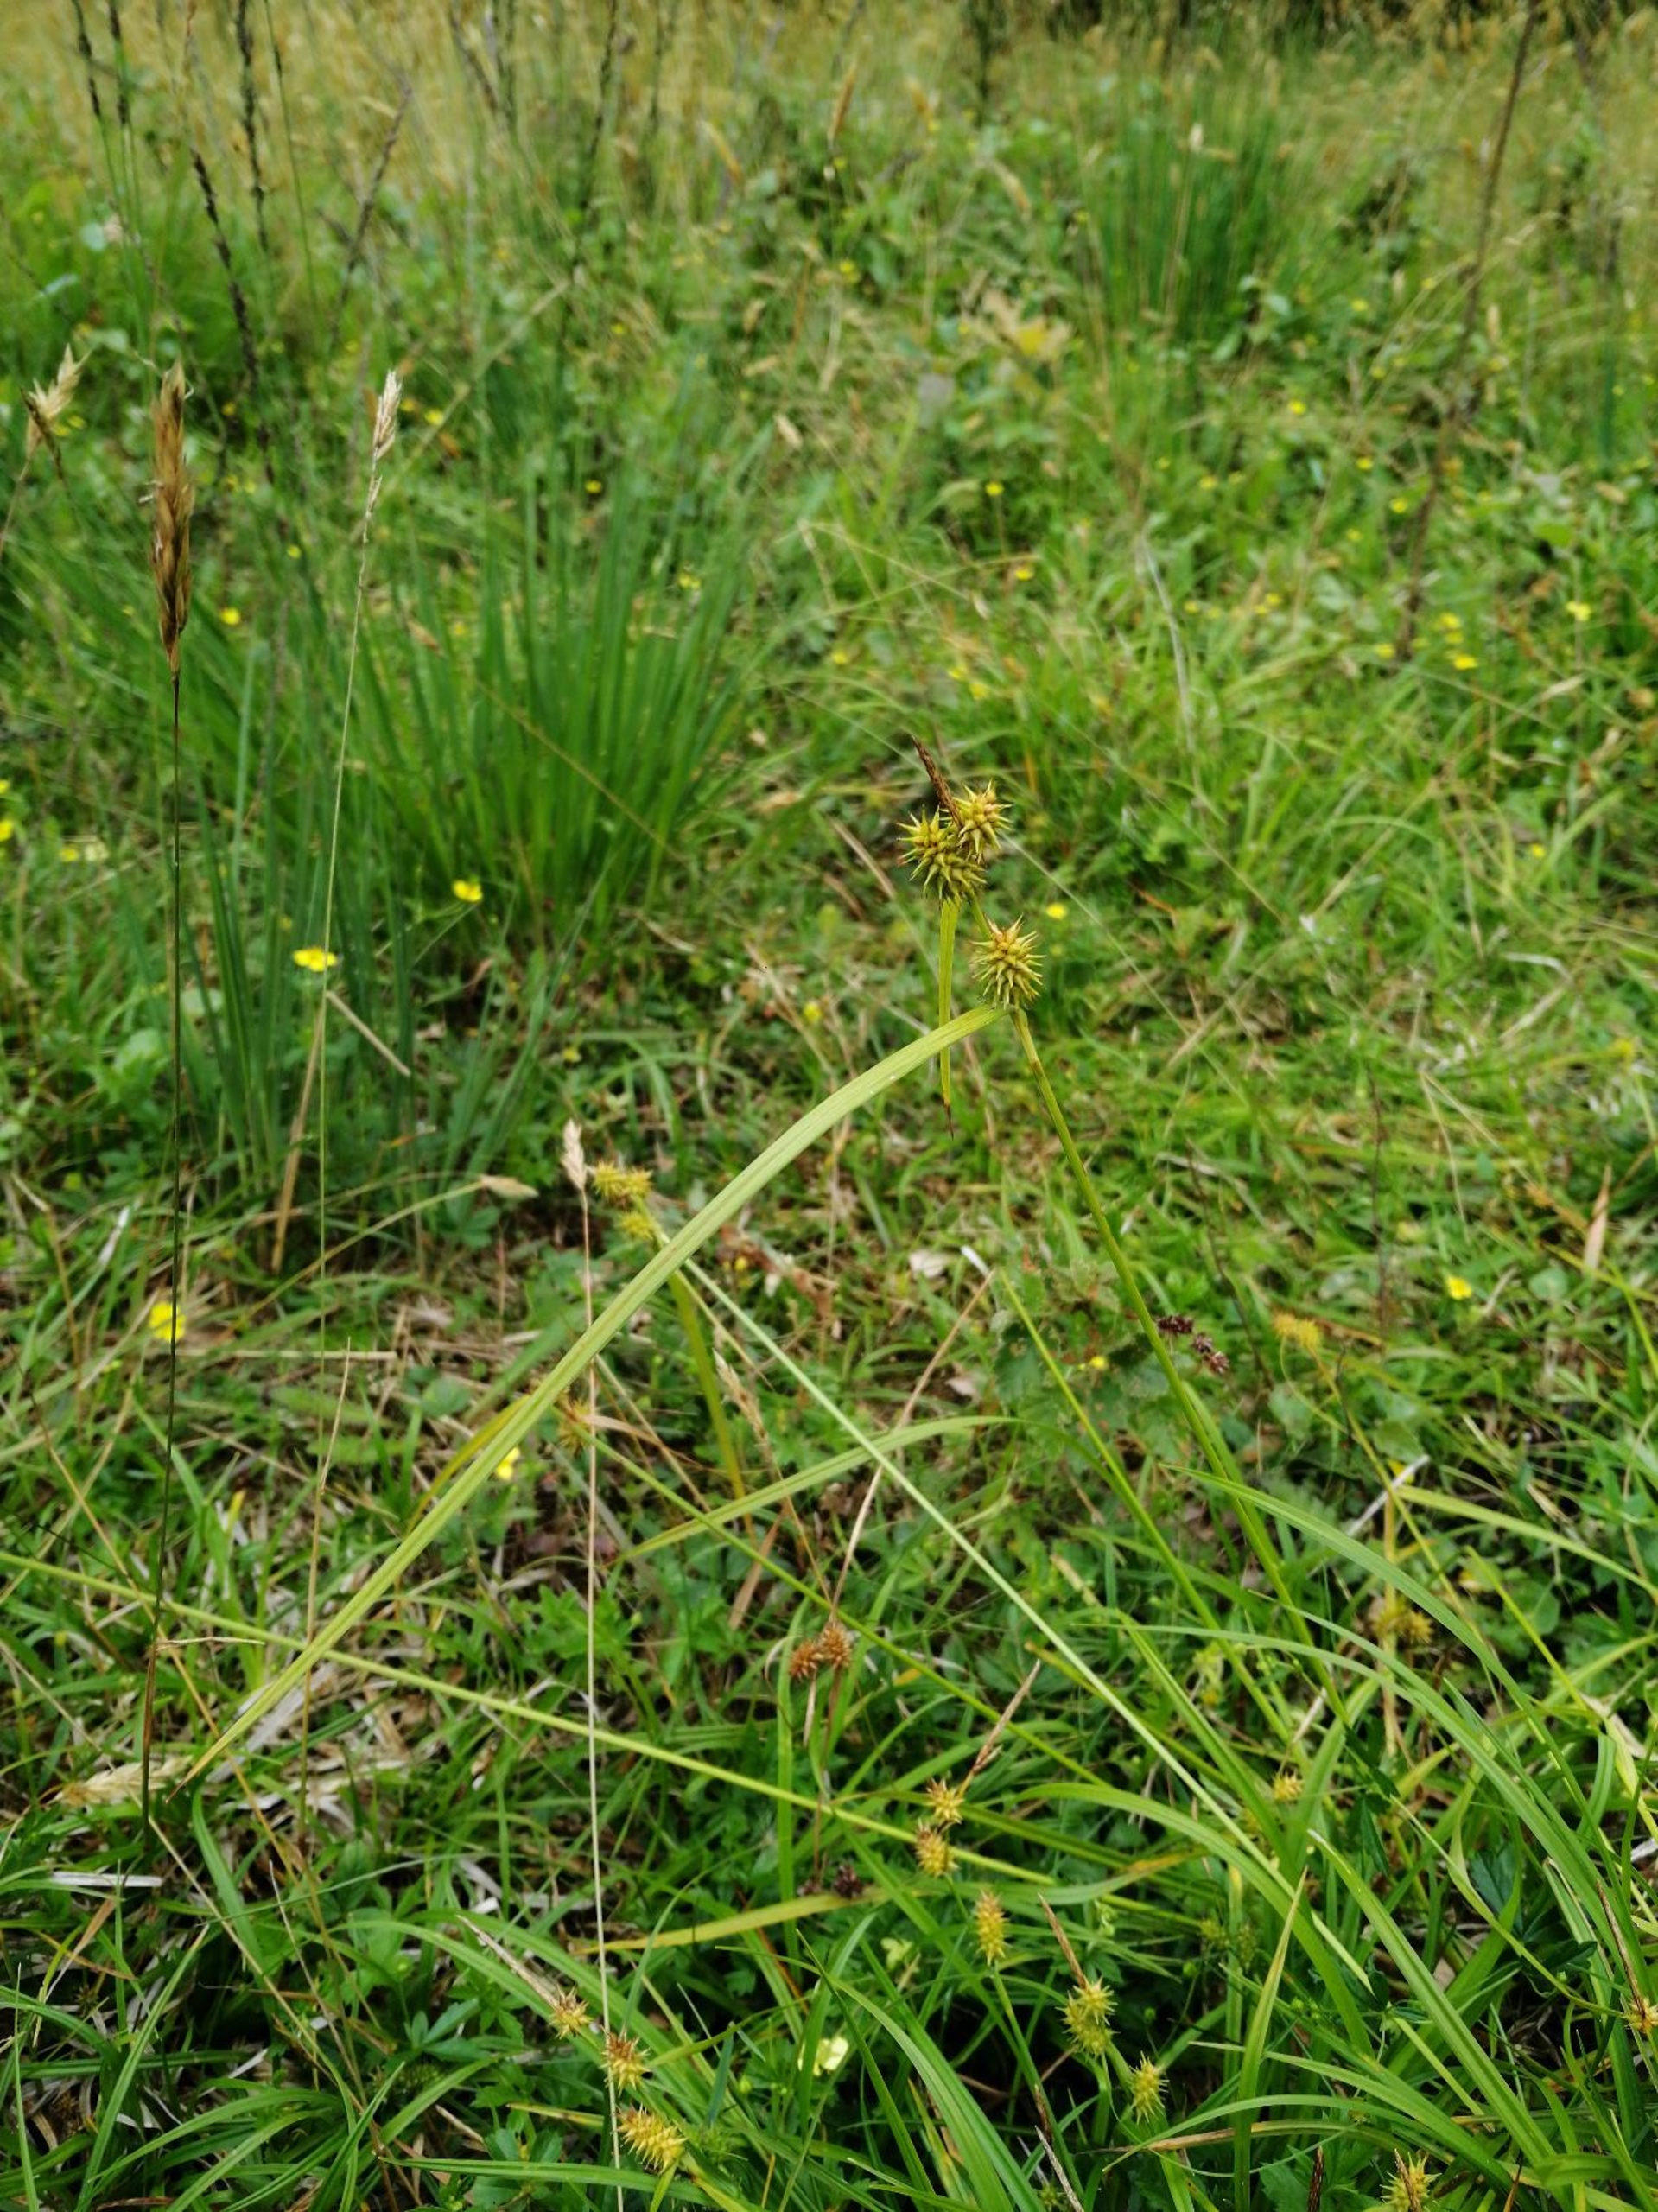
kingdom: Plantae
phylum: Tracheophyta
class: Liliopsida
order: Poales
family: Cyperaceae
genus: Carex
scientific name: Carex flava
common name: Gul star
